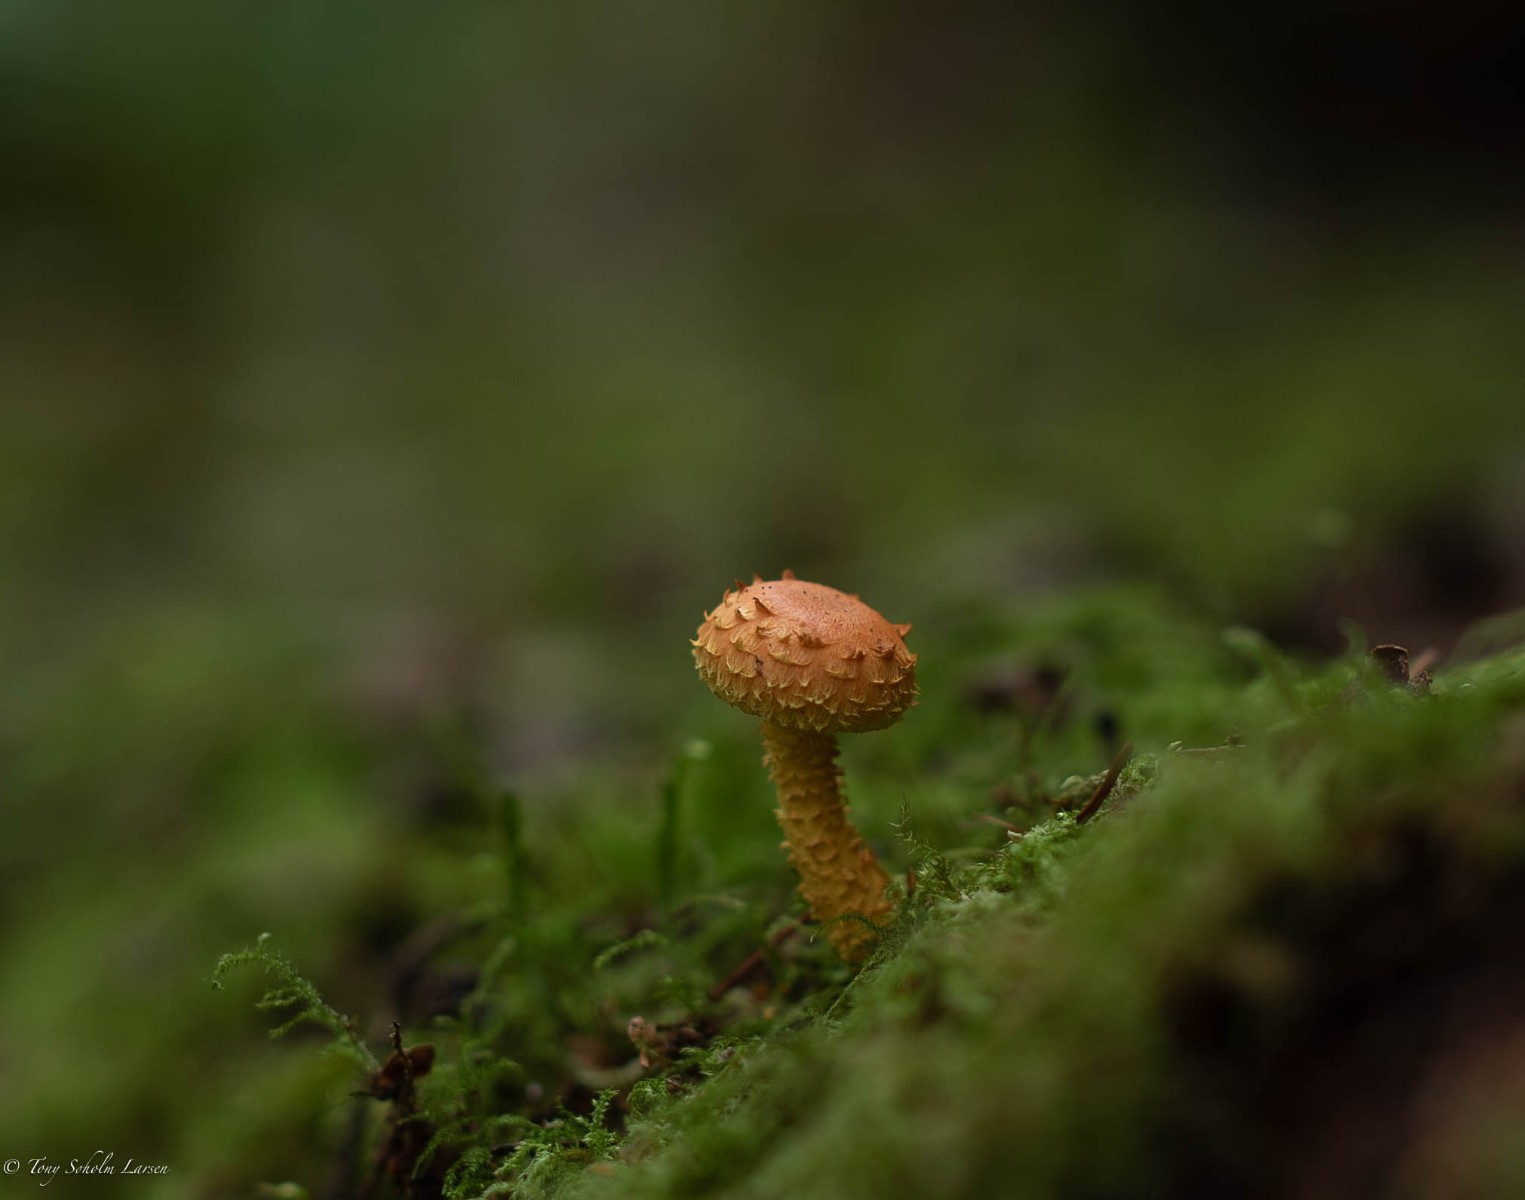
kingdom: Fungi
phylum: Basidiomycota
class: Agaricomycetes
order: Agaricales
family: Strophariaceae
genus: Pholiota
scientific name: Pholiota flammans
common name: flamme-skælhat
